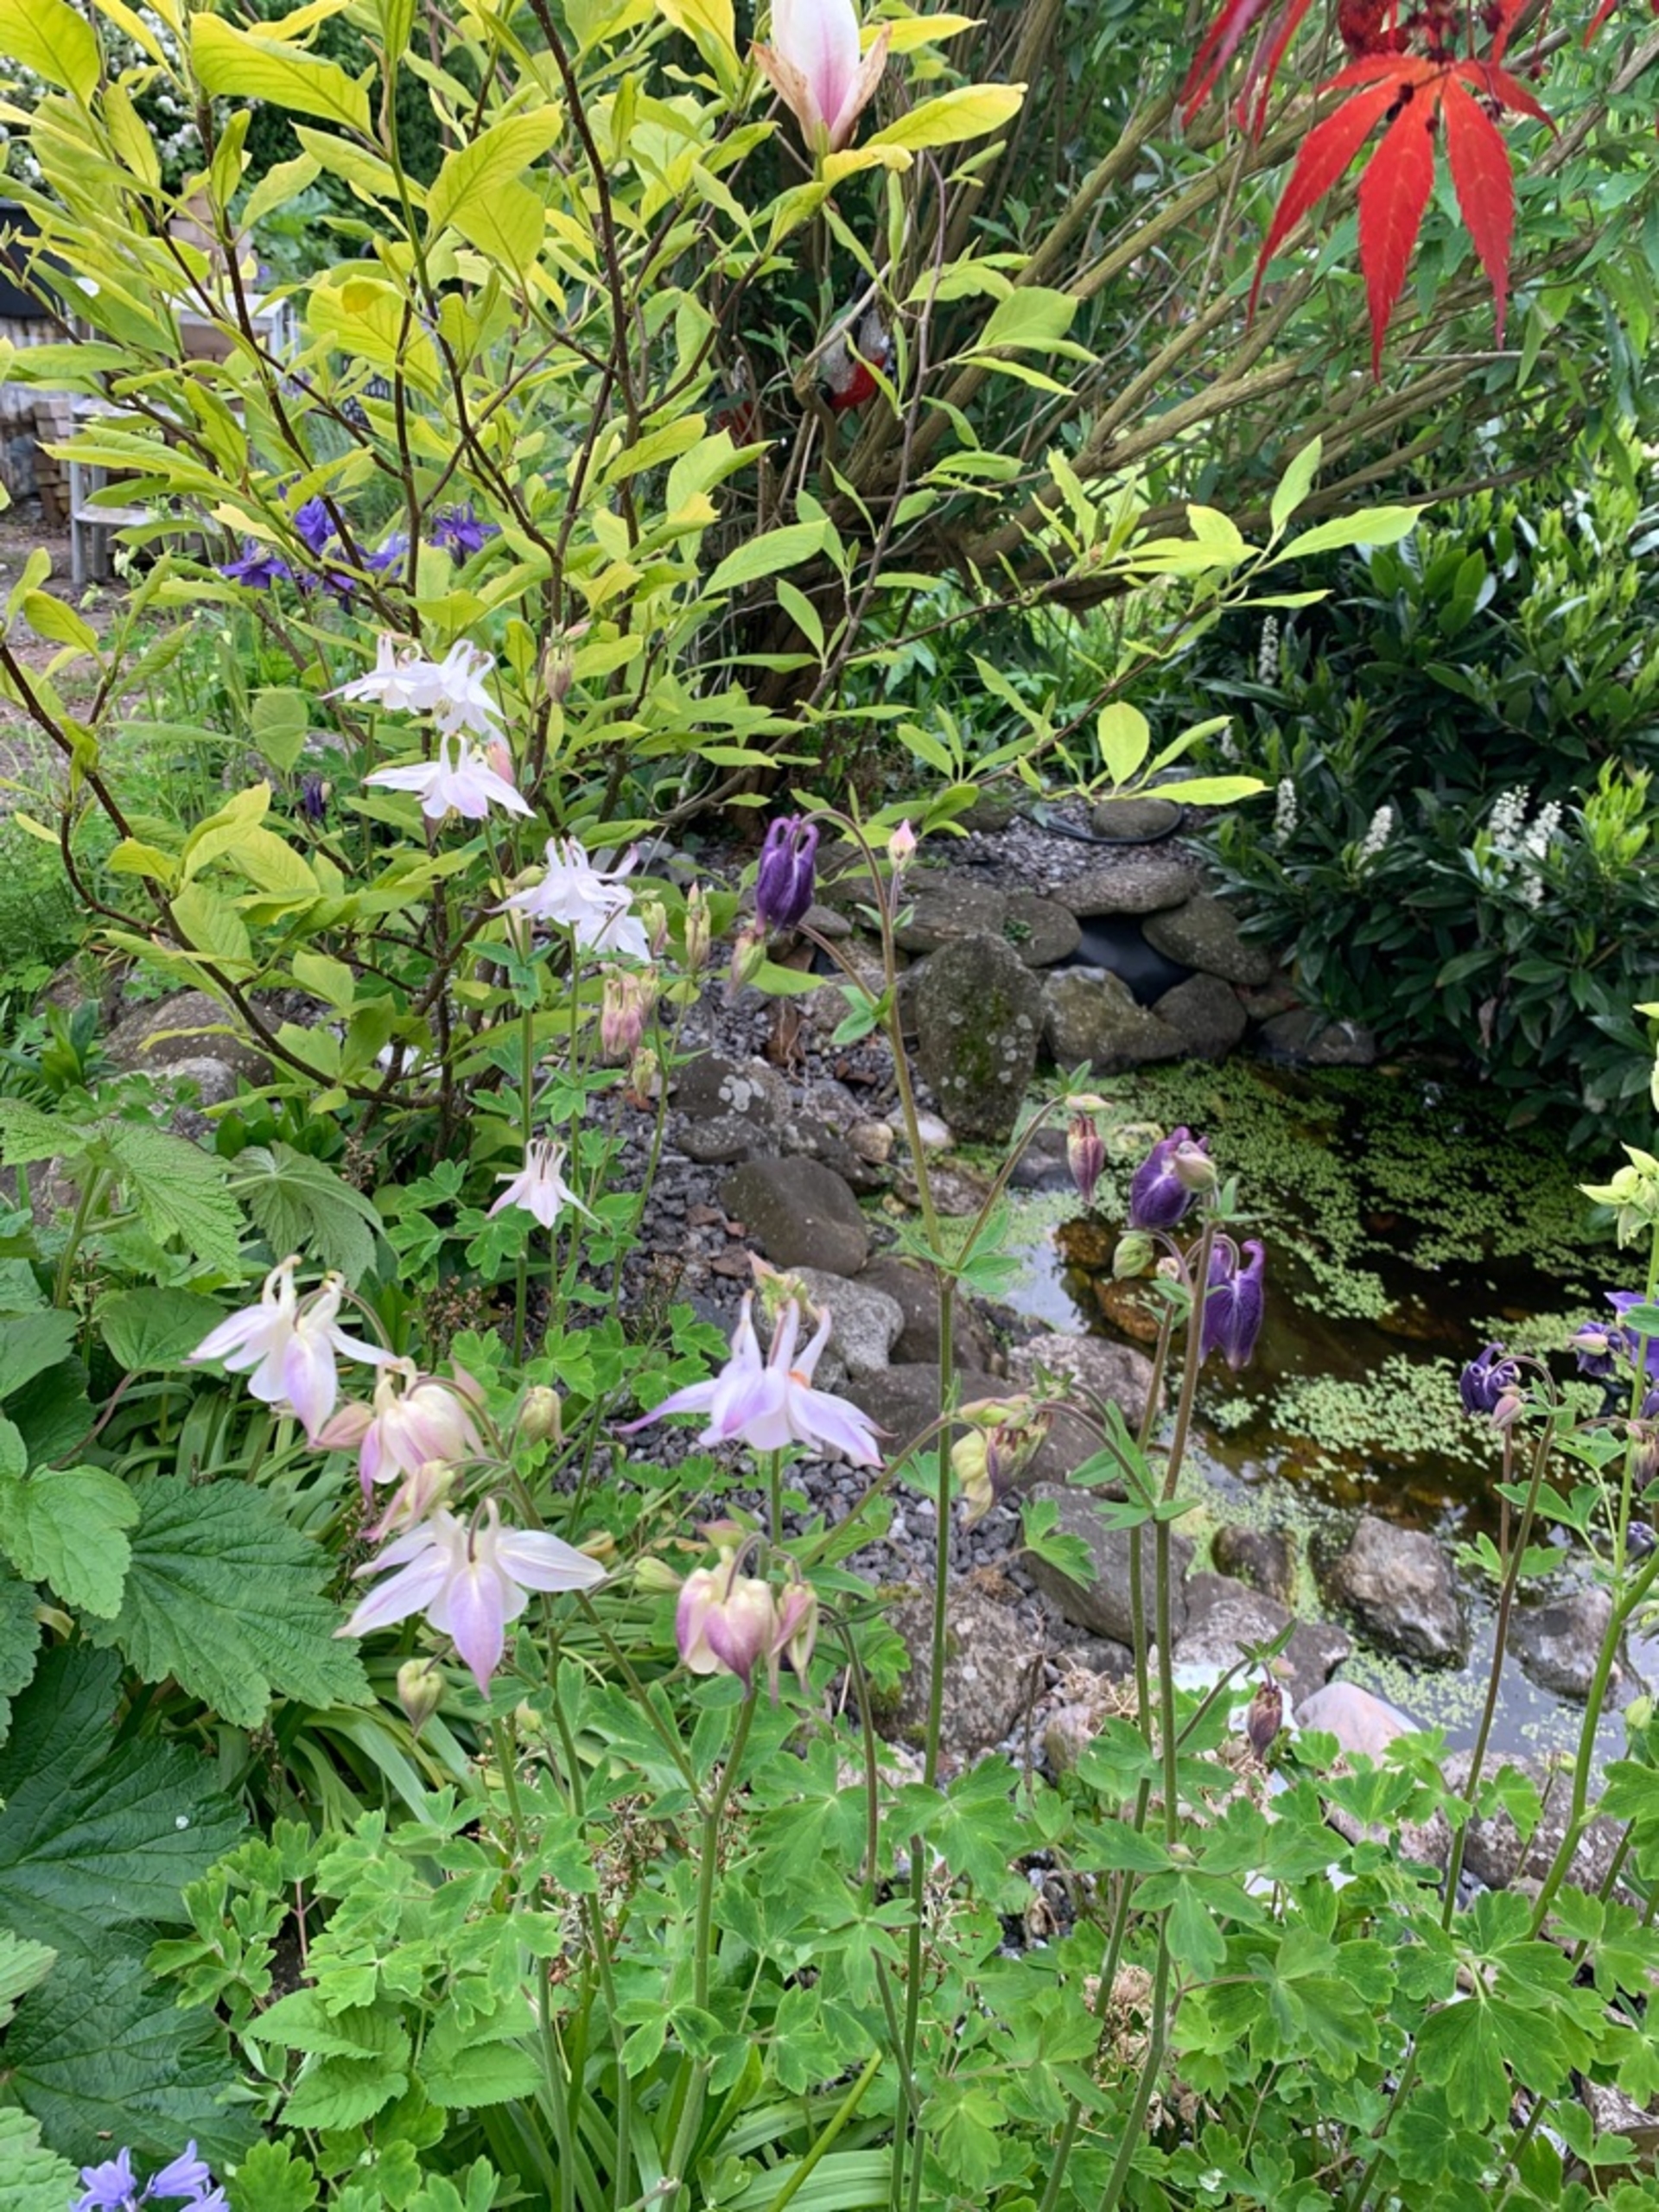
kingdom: Plantae
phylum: Tracheophyta
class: Magnoliopsida
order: Ranunculales
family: Ranunculaceae
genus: Aquilegia
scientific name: Aquilegia vulgaris
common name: Akeleje
